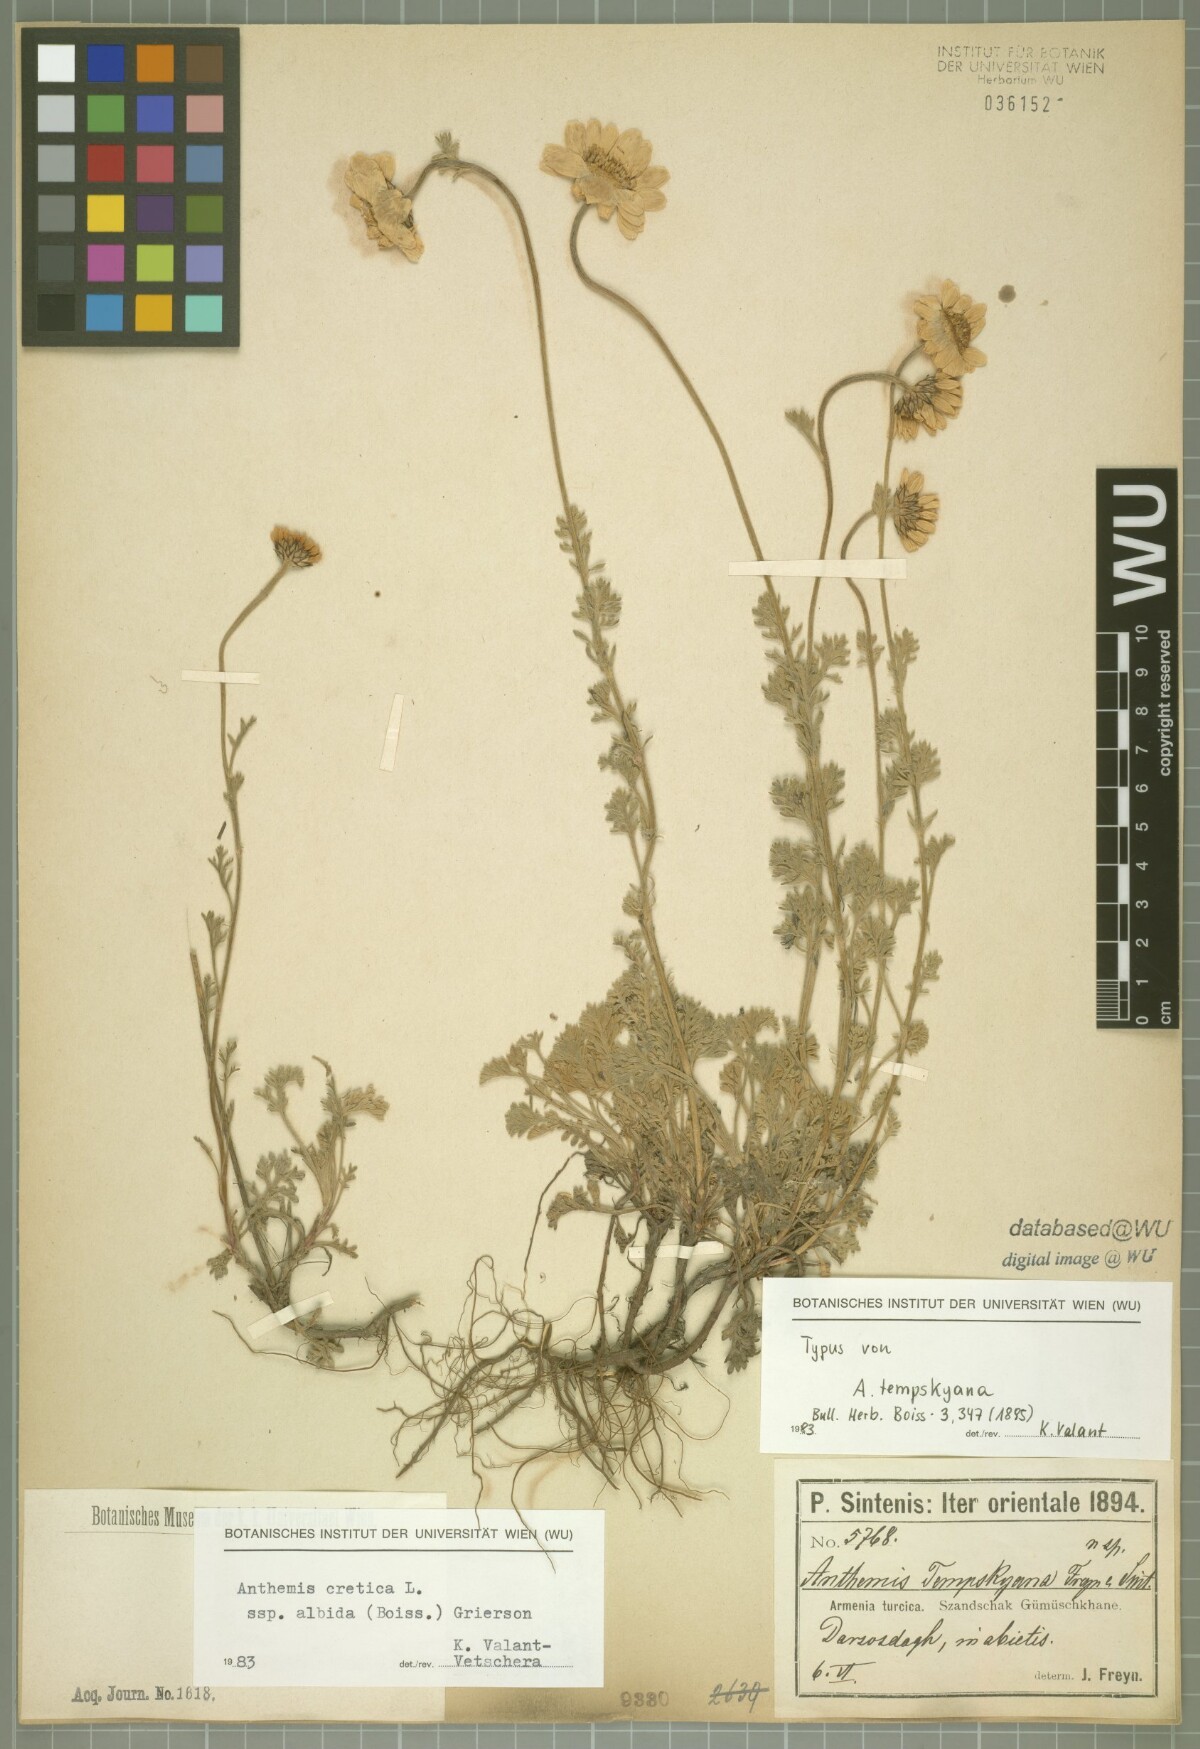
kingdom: Plantae
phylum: Tracheophyta
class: Magnoliopsida
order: Asterales
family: Asteraceae
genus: Anthemis
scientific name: Anthemis cretica
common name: Mountain dog-daisy
